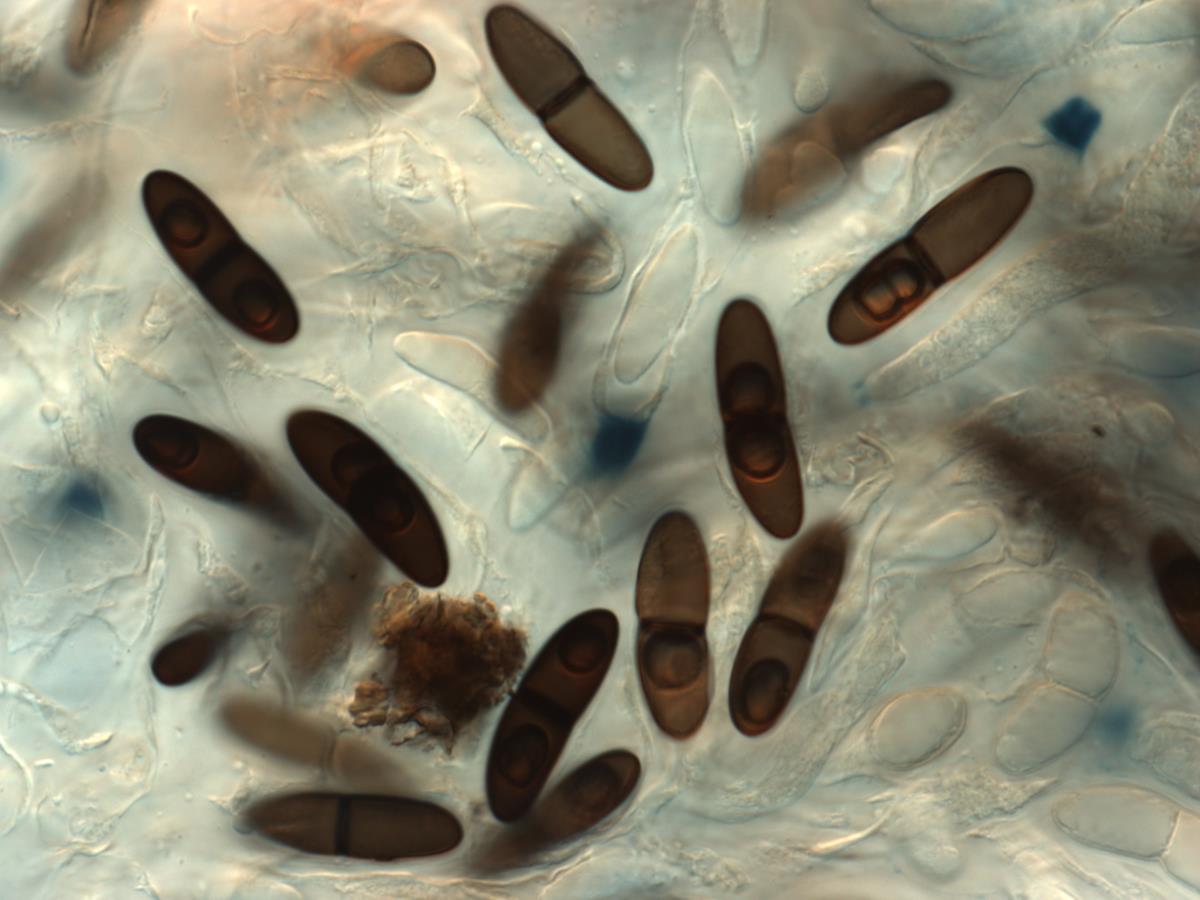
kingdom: Fungi
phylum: Ascomycota
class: Sordariomycetes
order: Xylariales
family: Xylariaceae
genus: Collodiscula
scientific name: Collodiscula
